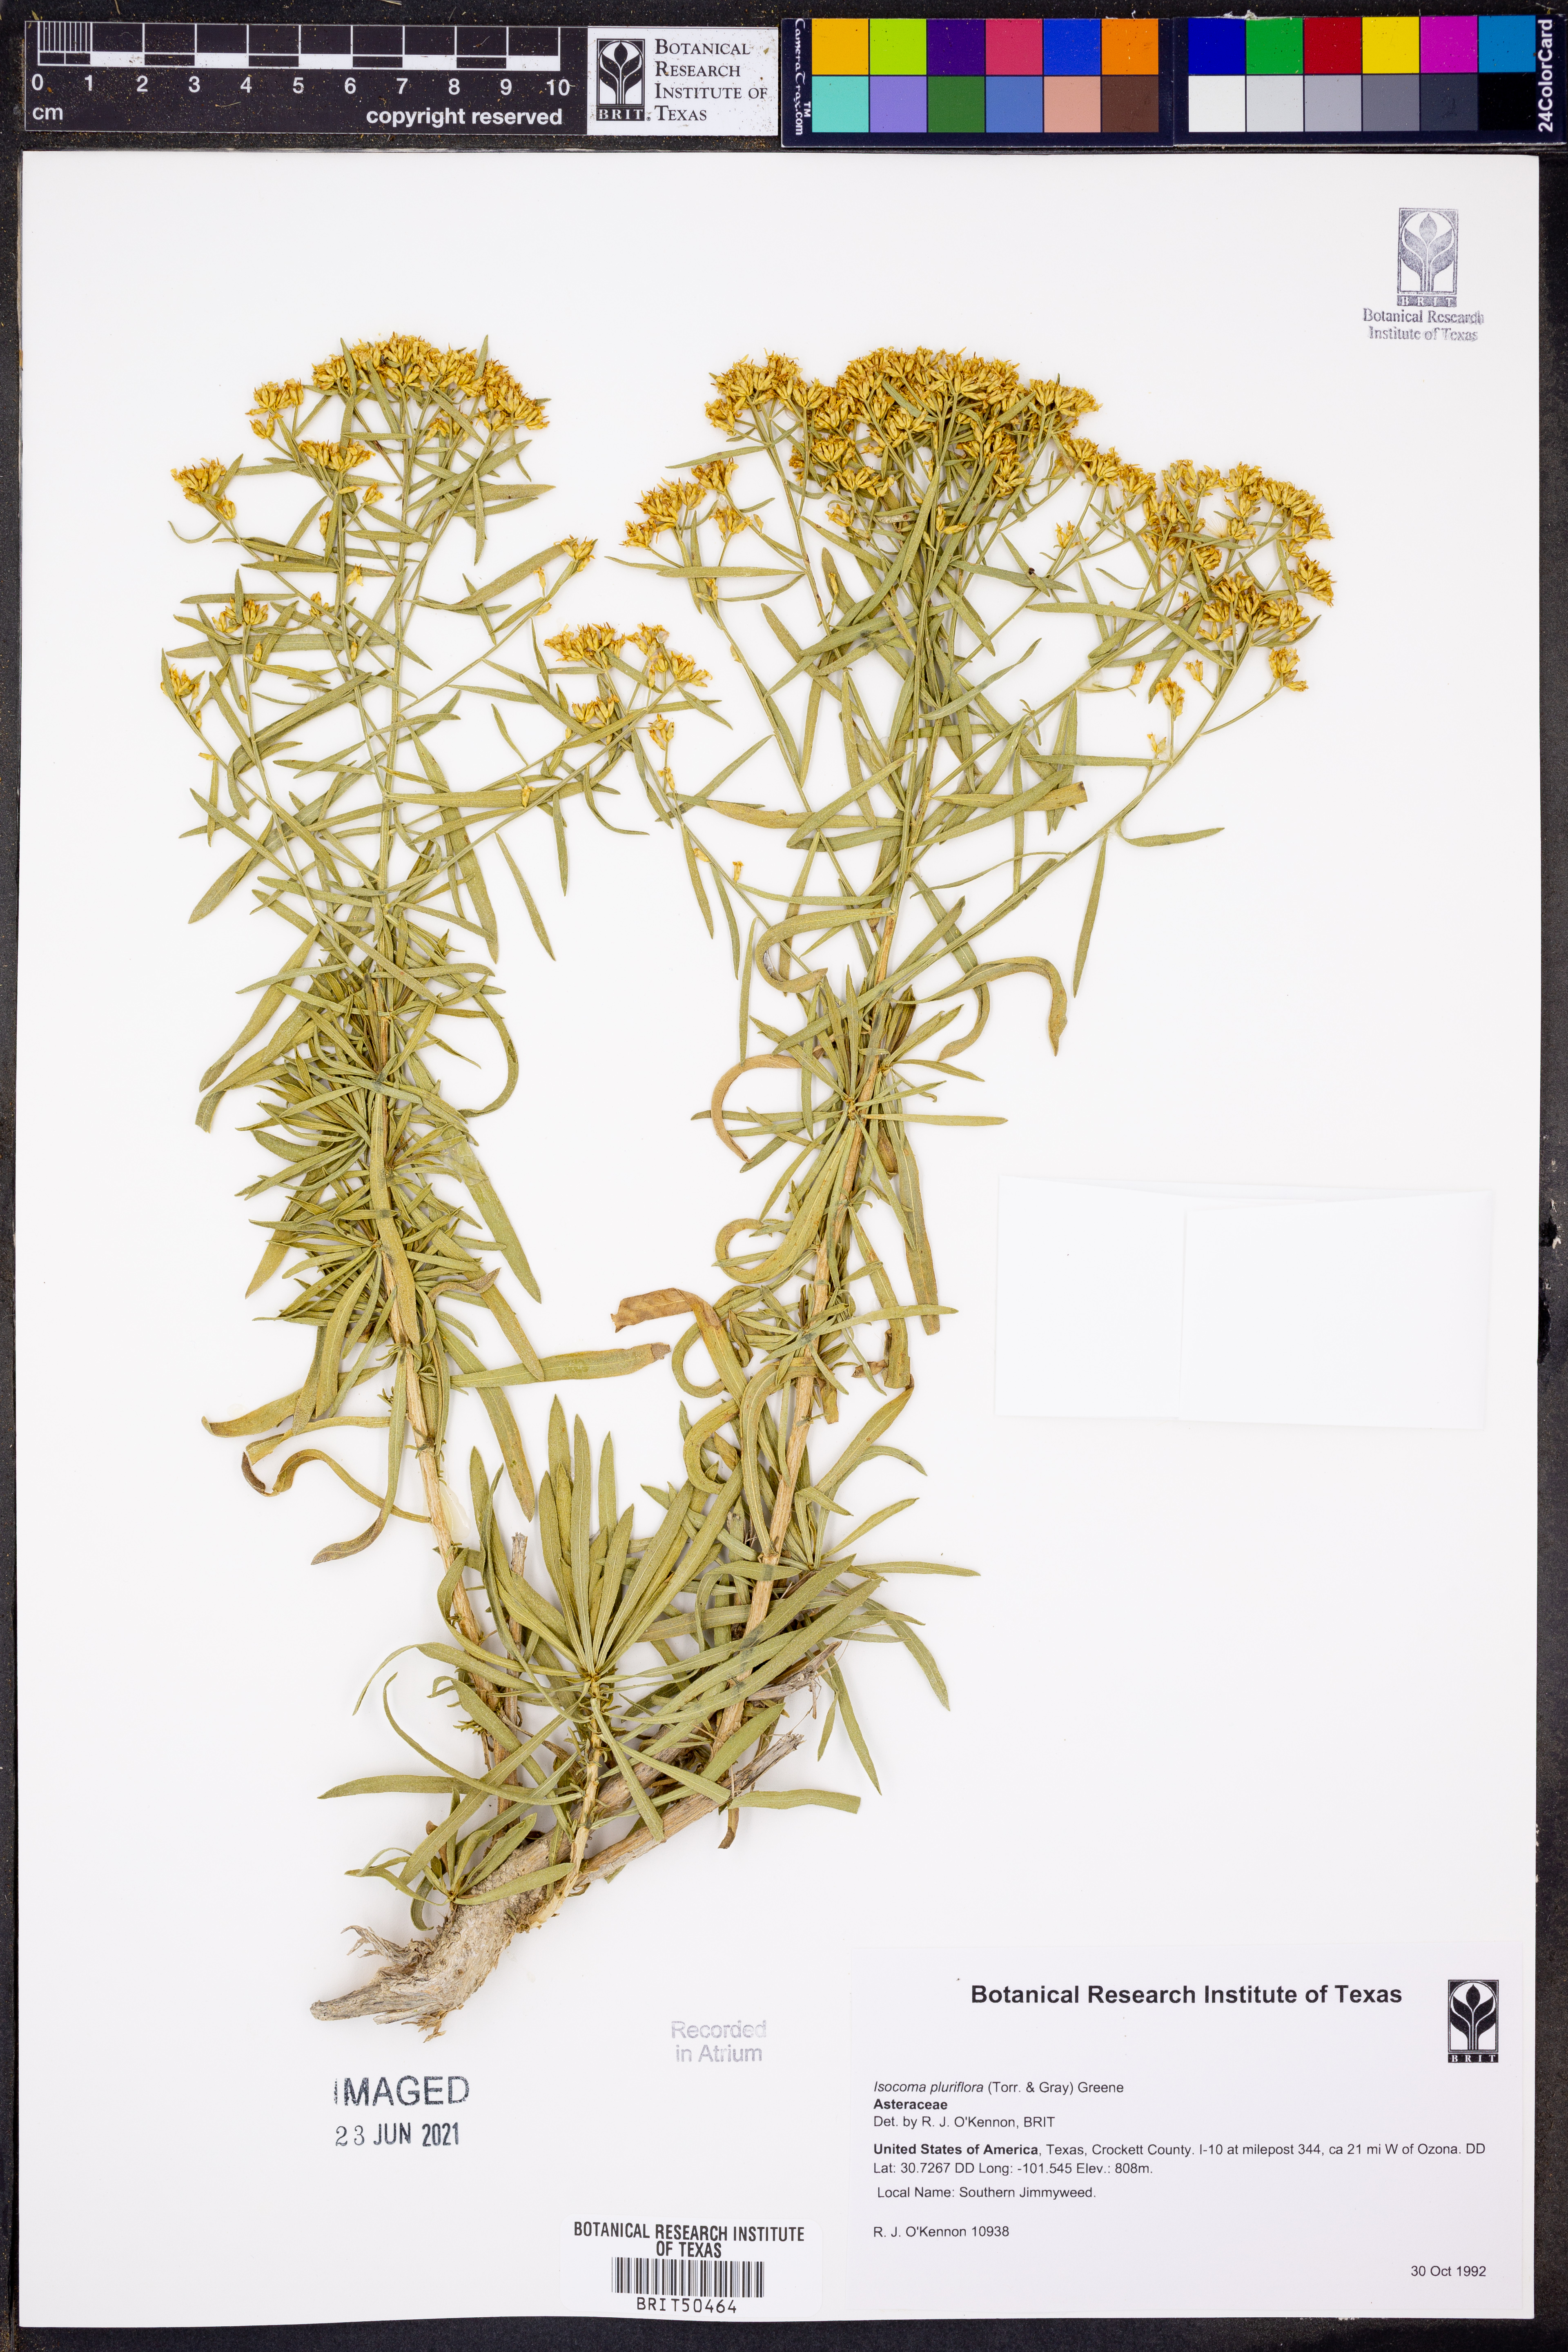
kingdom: Plantae
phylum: Tracheophyta
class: Magnoliopsida
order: Asterales
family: Asteraceae
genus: Isocoma
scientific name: Isocoma pluriflora
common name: Southern jimmyweed
